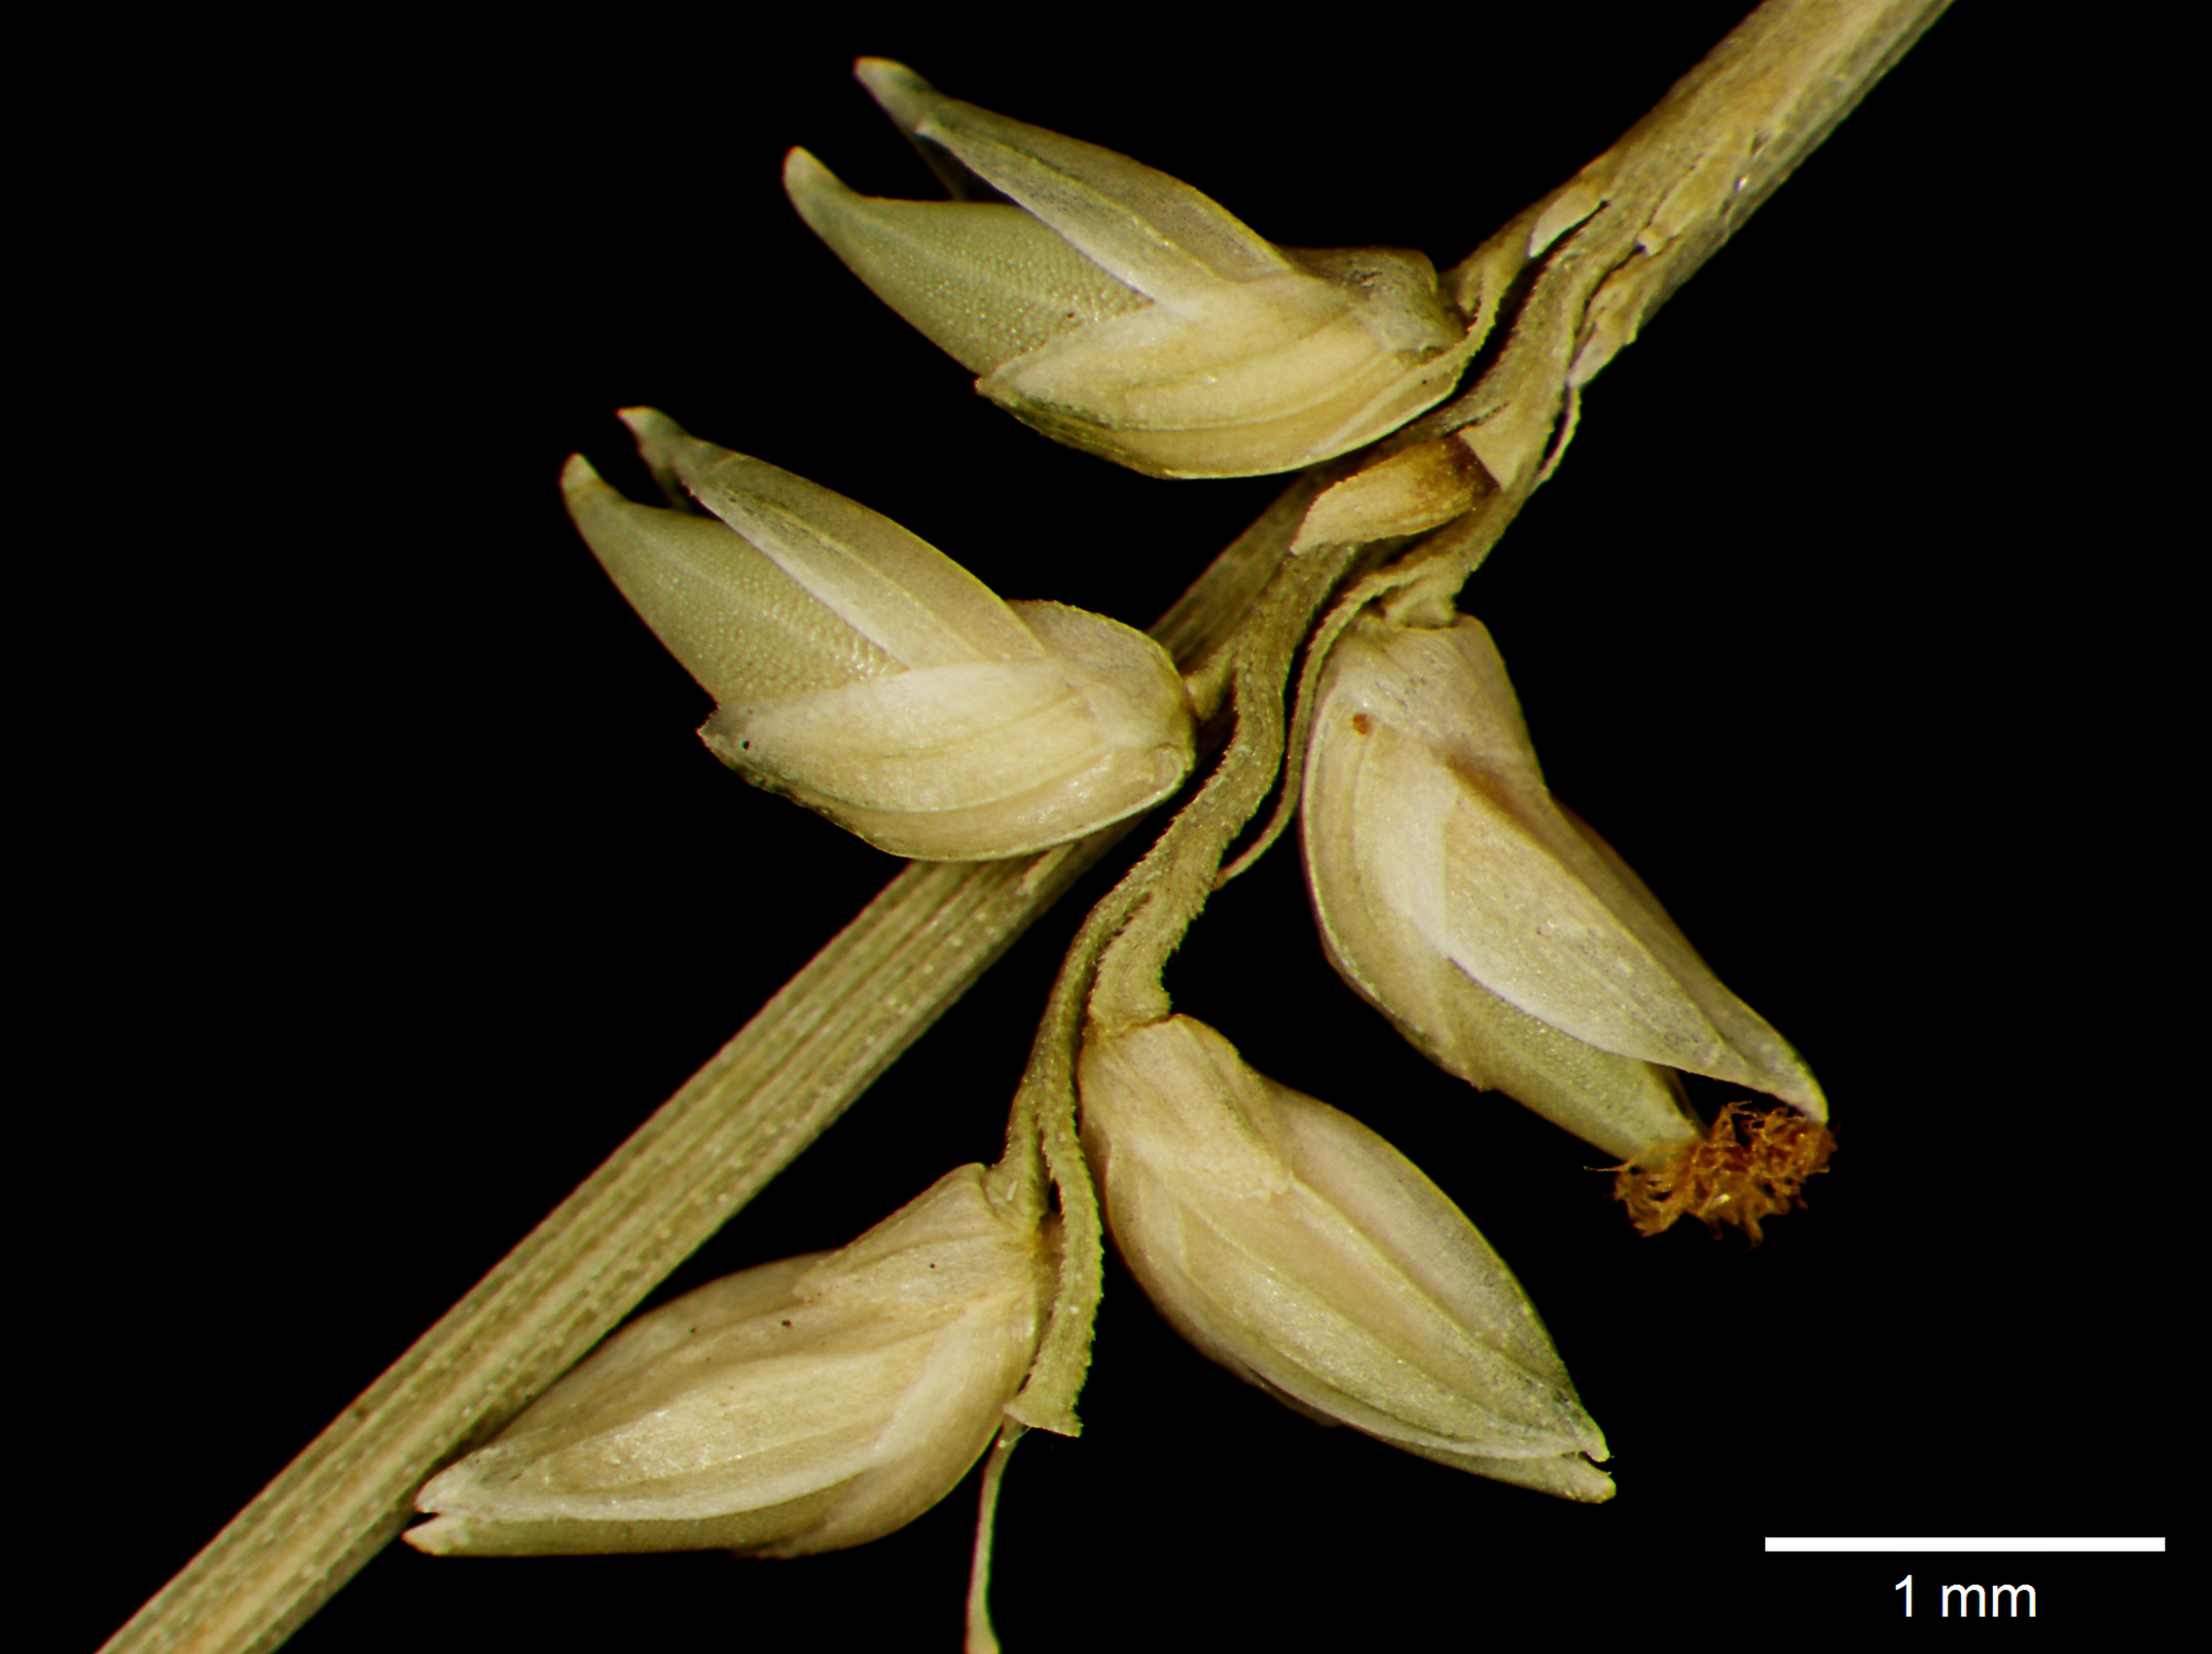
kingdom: Plantae
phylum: Tracheophyta
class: Liliopsida
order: Poales
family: Poaceae
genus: Setaria
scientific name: Setaria pradana
